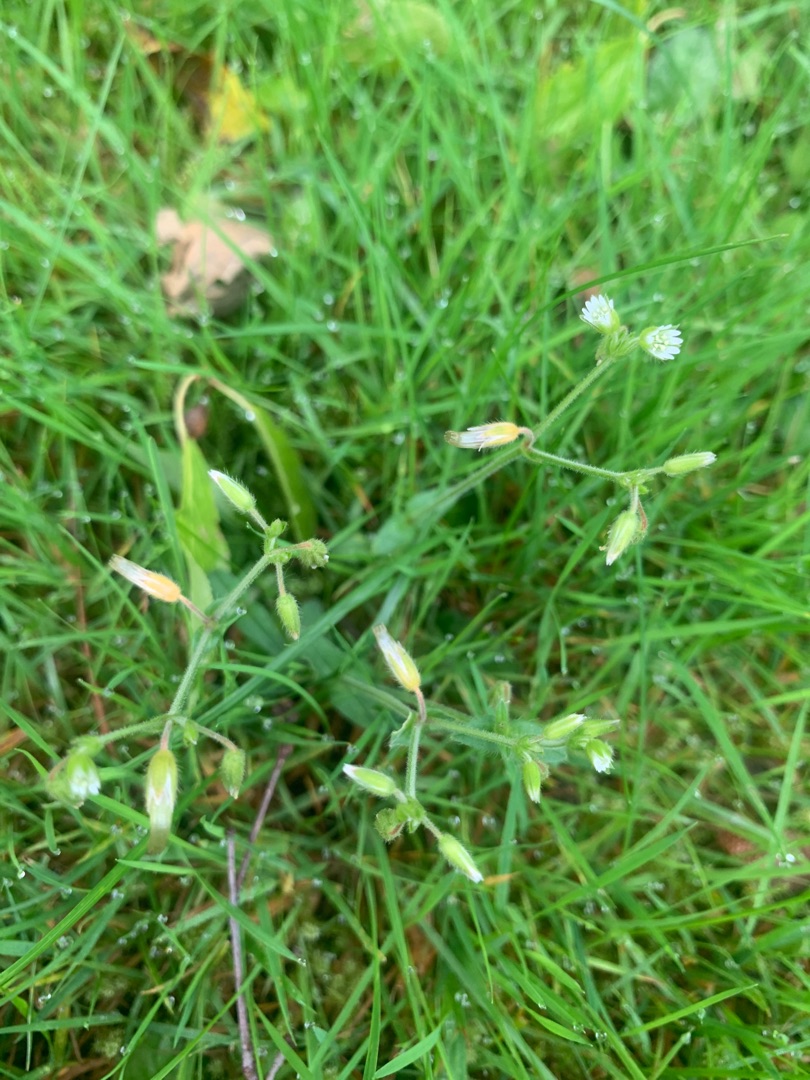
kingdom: Plantae
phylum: Tracheophyta
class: Magnoliopsida
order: Caryophyllales
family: Caryophyllaceae
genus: Cerastium
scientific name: Cerastium fontanum
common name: Almindelig hønsetarm
